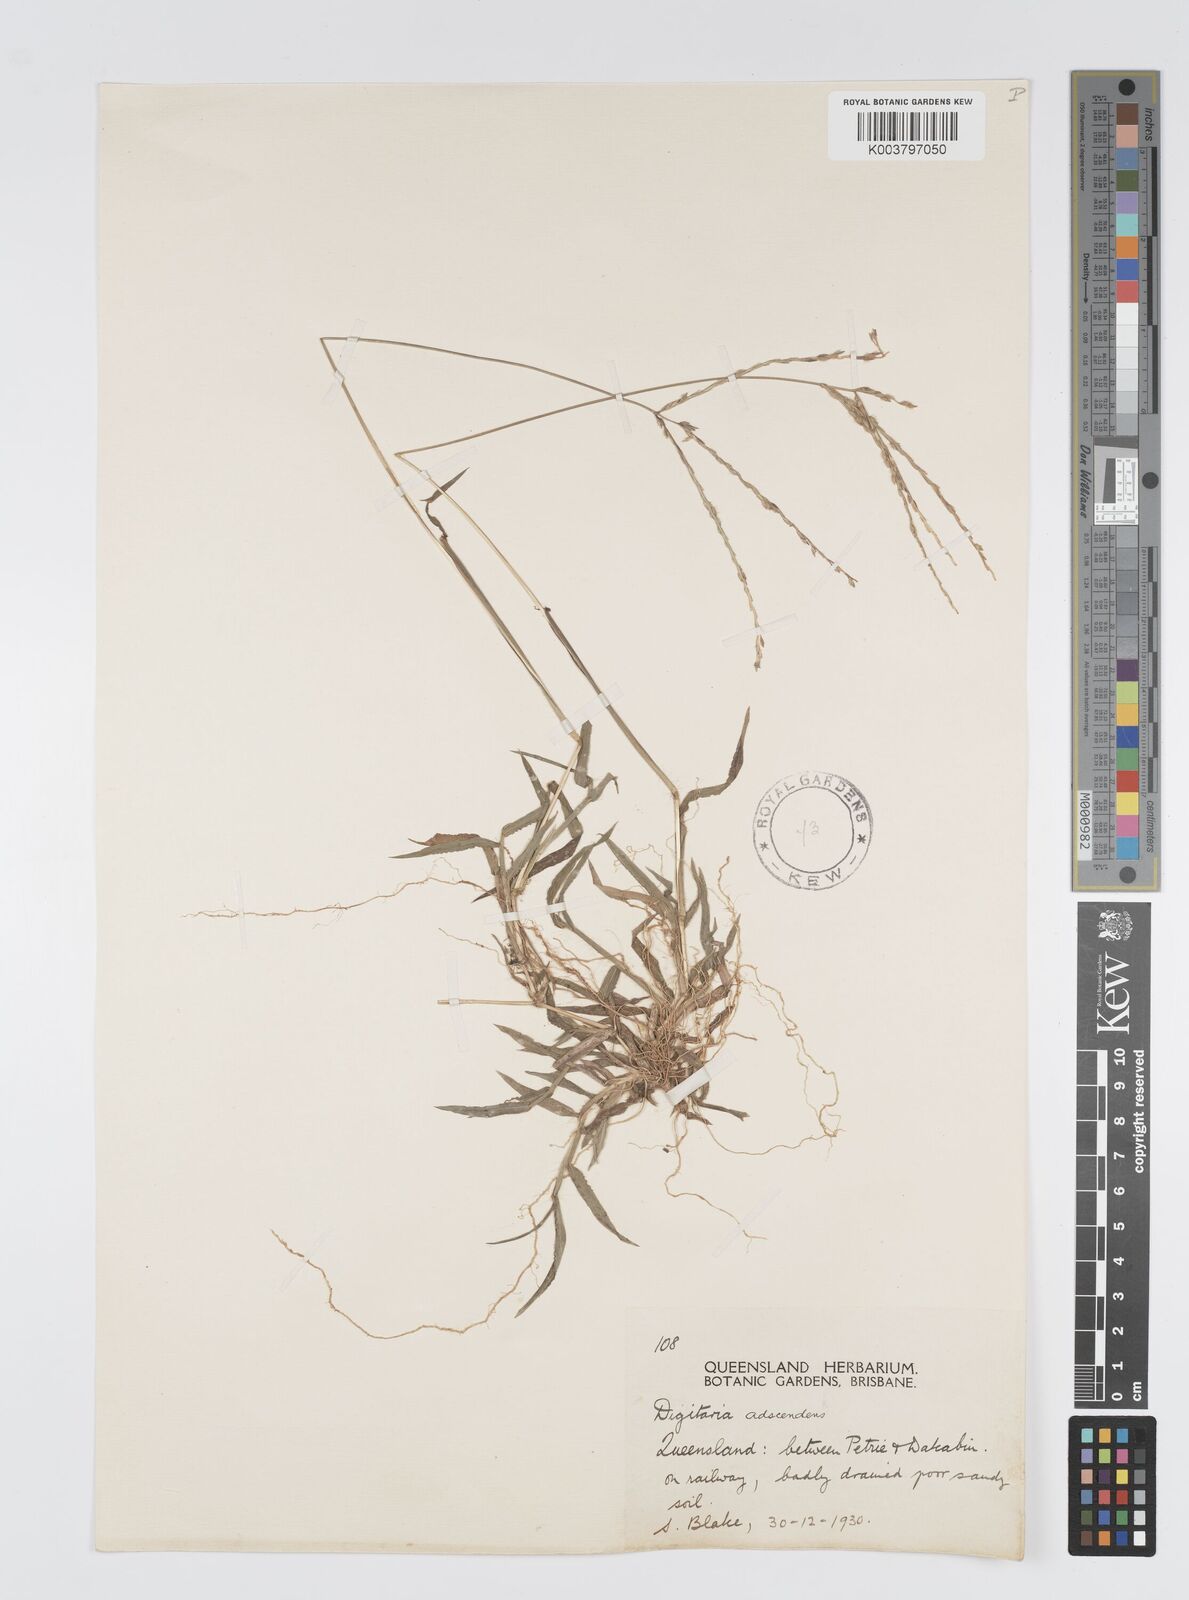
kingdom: Plantae
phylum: Tracheophyta
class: Liliopsida
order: Poales
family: Poaceae
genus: Digitaria
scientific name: Digitaria ciliaris
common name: Tropical finger-grass
